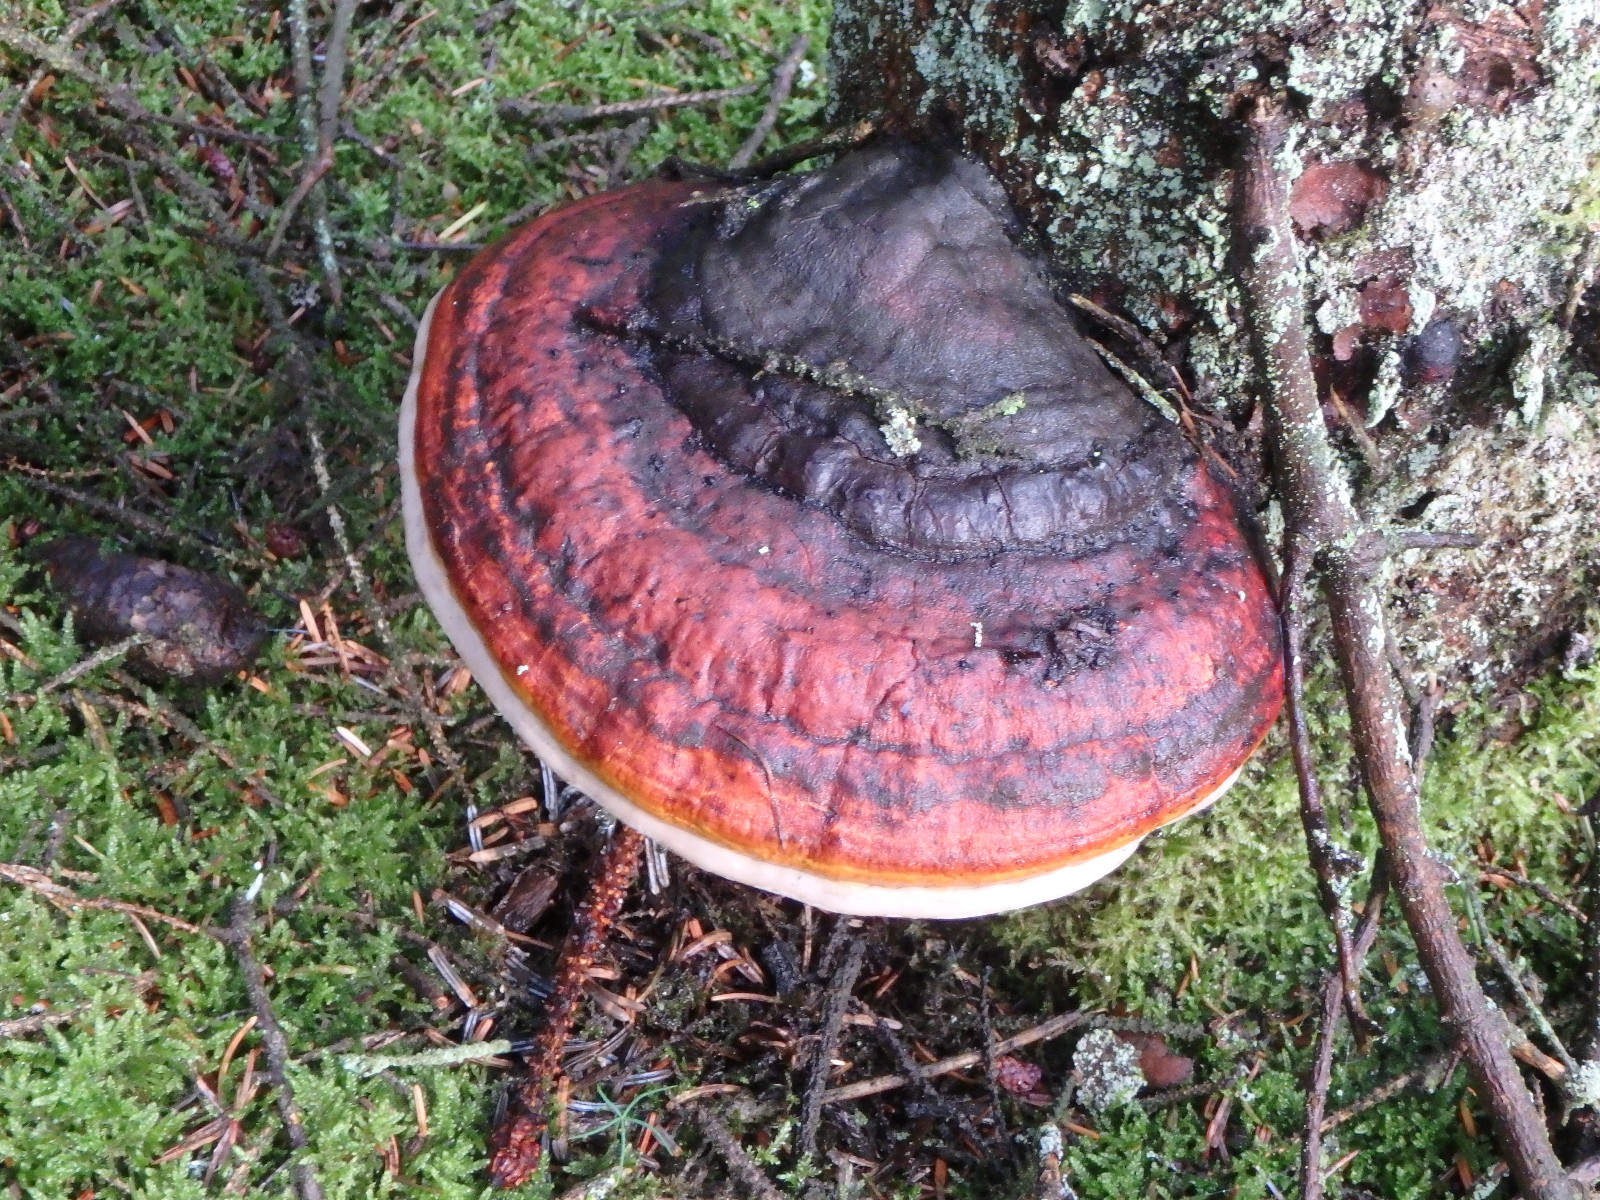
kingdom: Fungi
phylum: Basidiomycota
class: Agaricomycetes
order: Polyporales
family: Fomitopsidaceae
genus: Fomitopsis
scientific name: Fomitopsis pinicola
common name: randbæltet hovporesvamp
